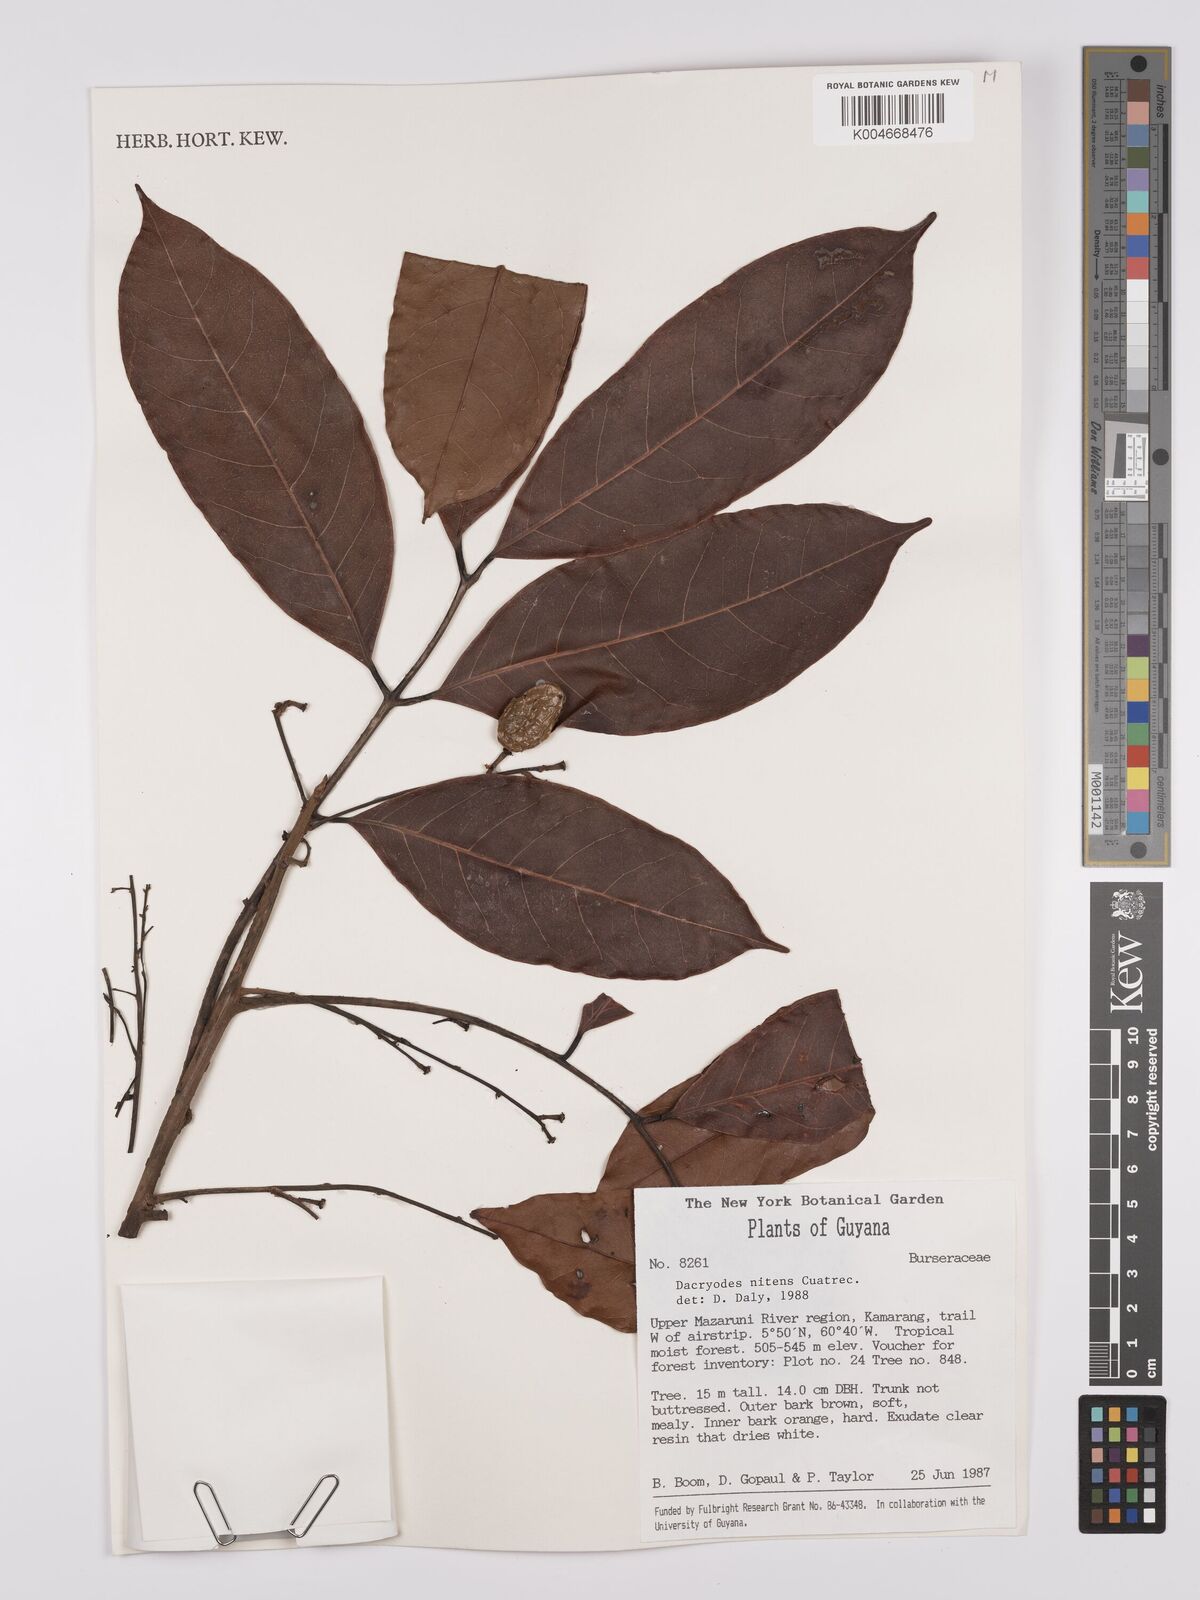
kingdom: Plantae
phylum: Tracheophyta
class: Magnoliopsida
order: Sapindales
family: Burseraceae
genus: Dacryodes
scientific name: Dacryodes nitens
